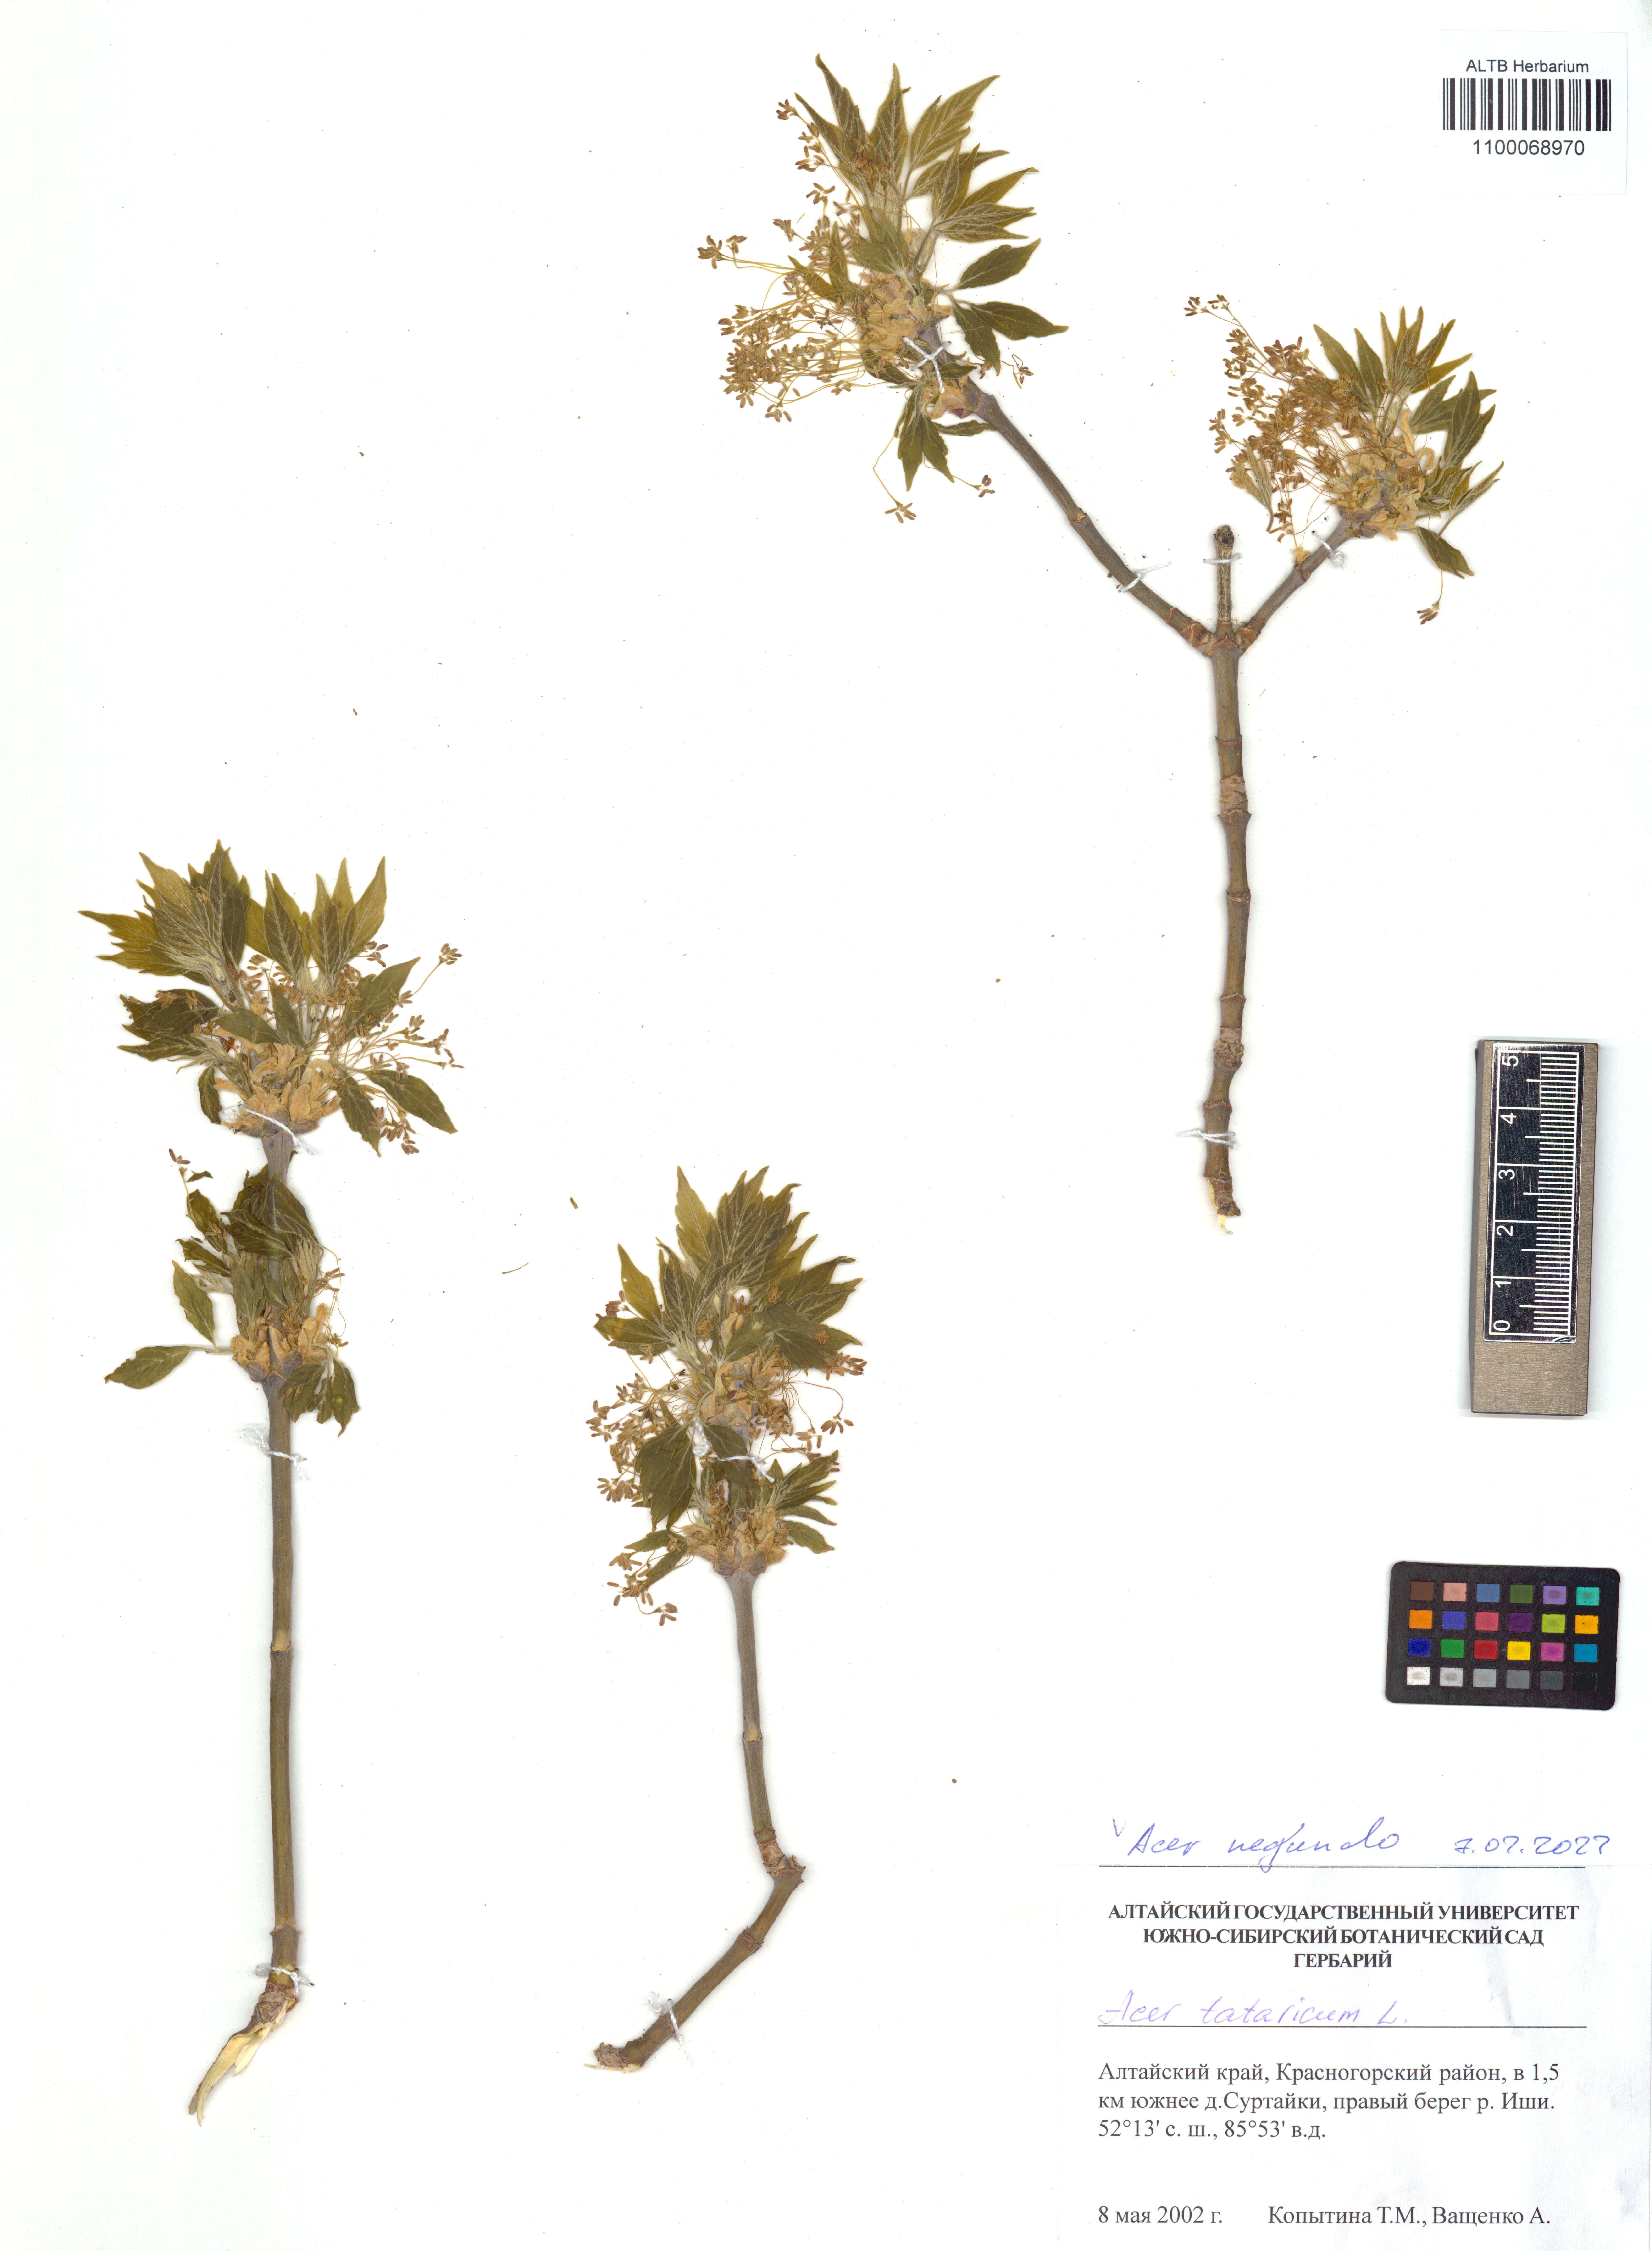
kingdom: Plantae
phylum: Tracheophyta
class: Magnoliopsida
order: Sapindales
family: Sapindaceae
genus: Acer
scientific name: Acer negundo
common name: Ashleaf maple
